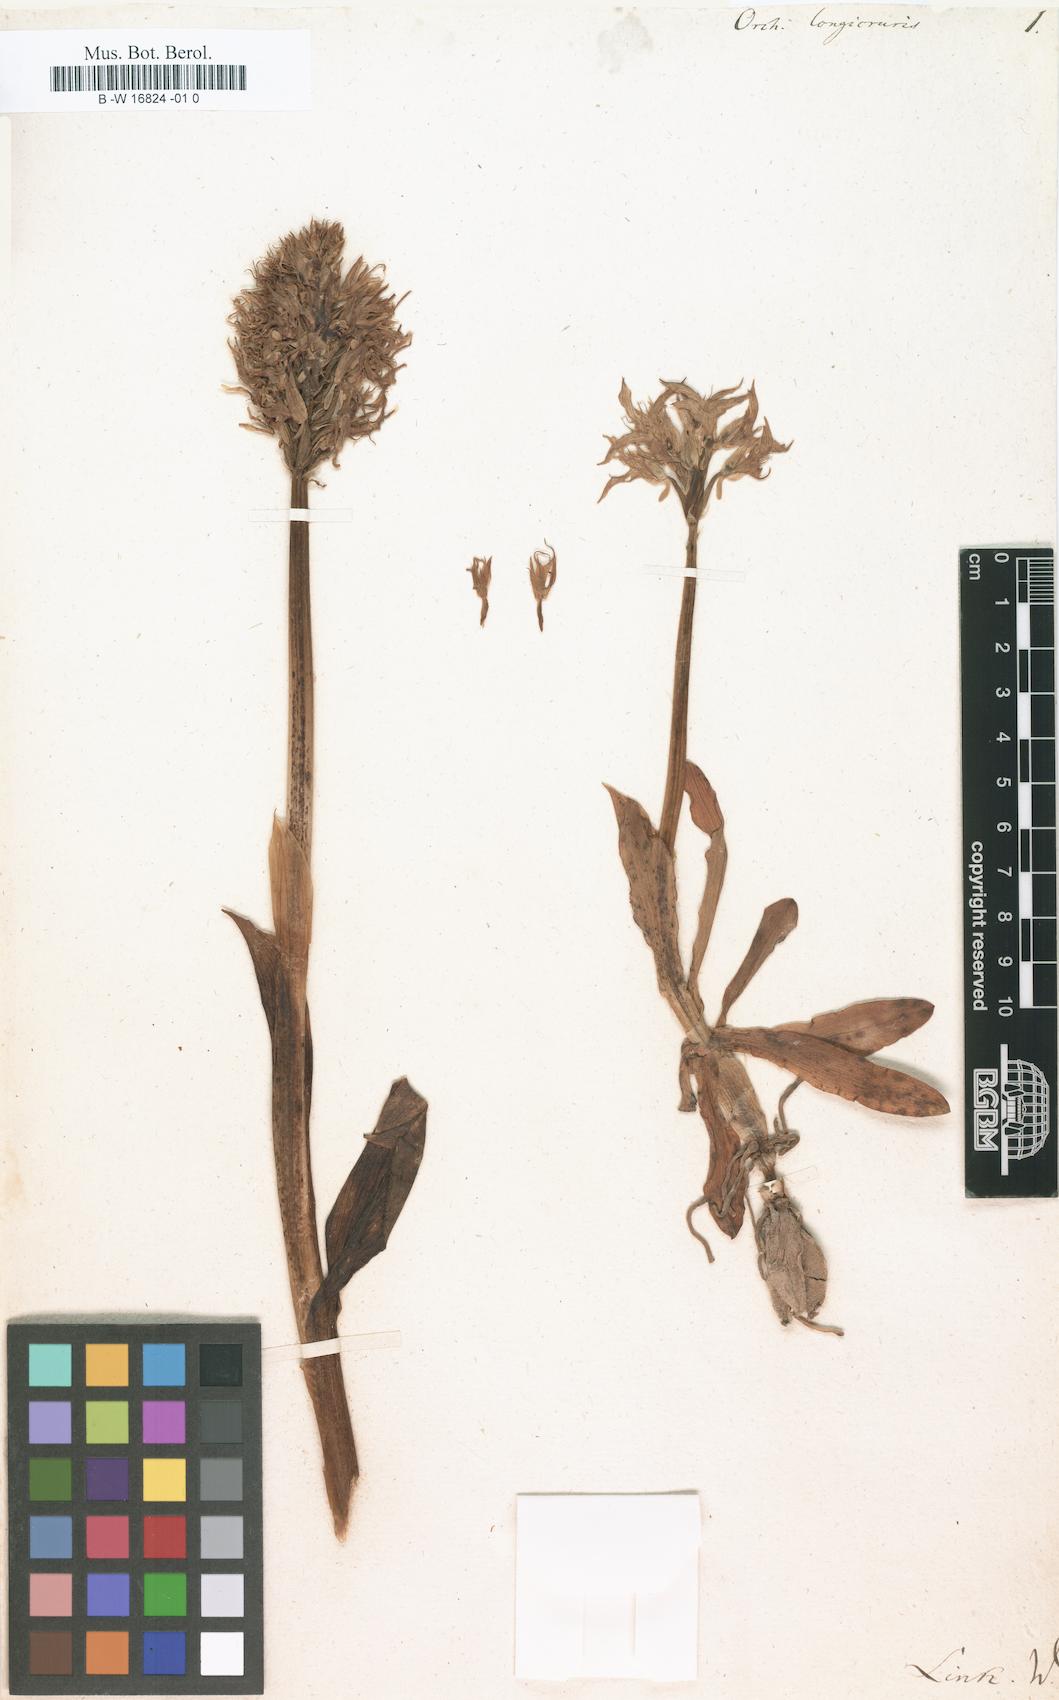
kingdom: Plantae
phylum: Tracheophyta
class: Liliopsida
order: Asparagales
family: Orchidaceae
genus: Orchis
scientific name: Orchis italica
